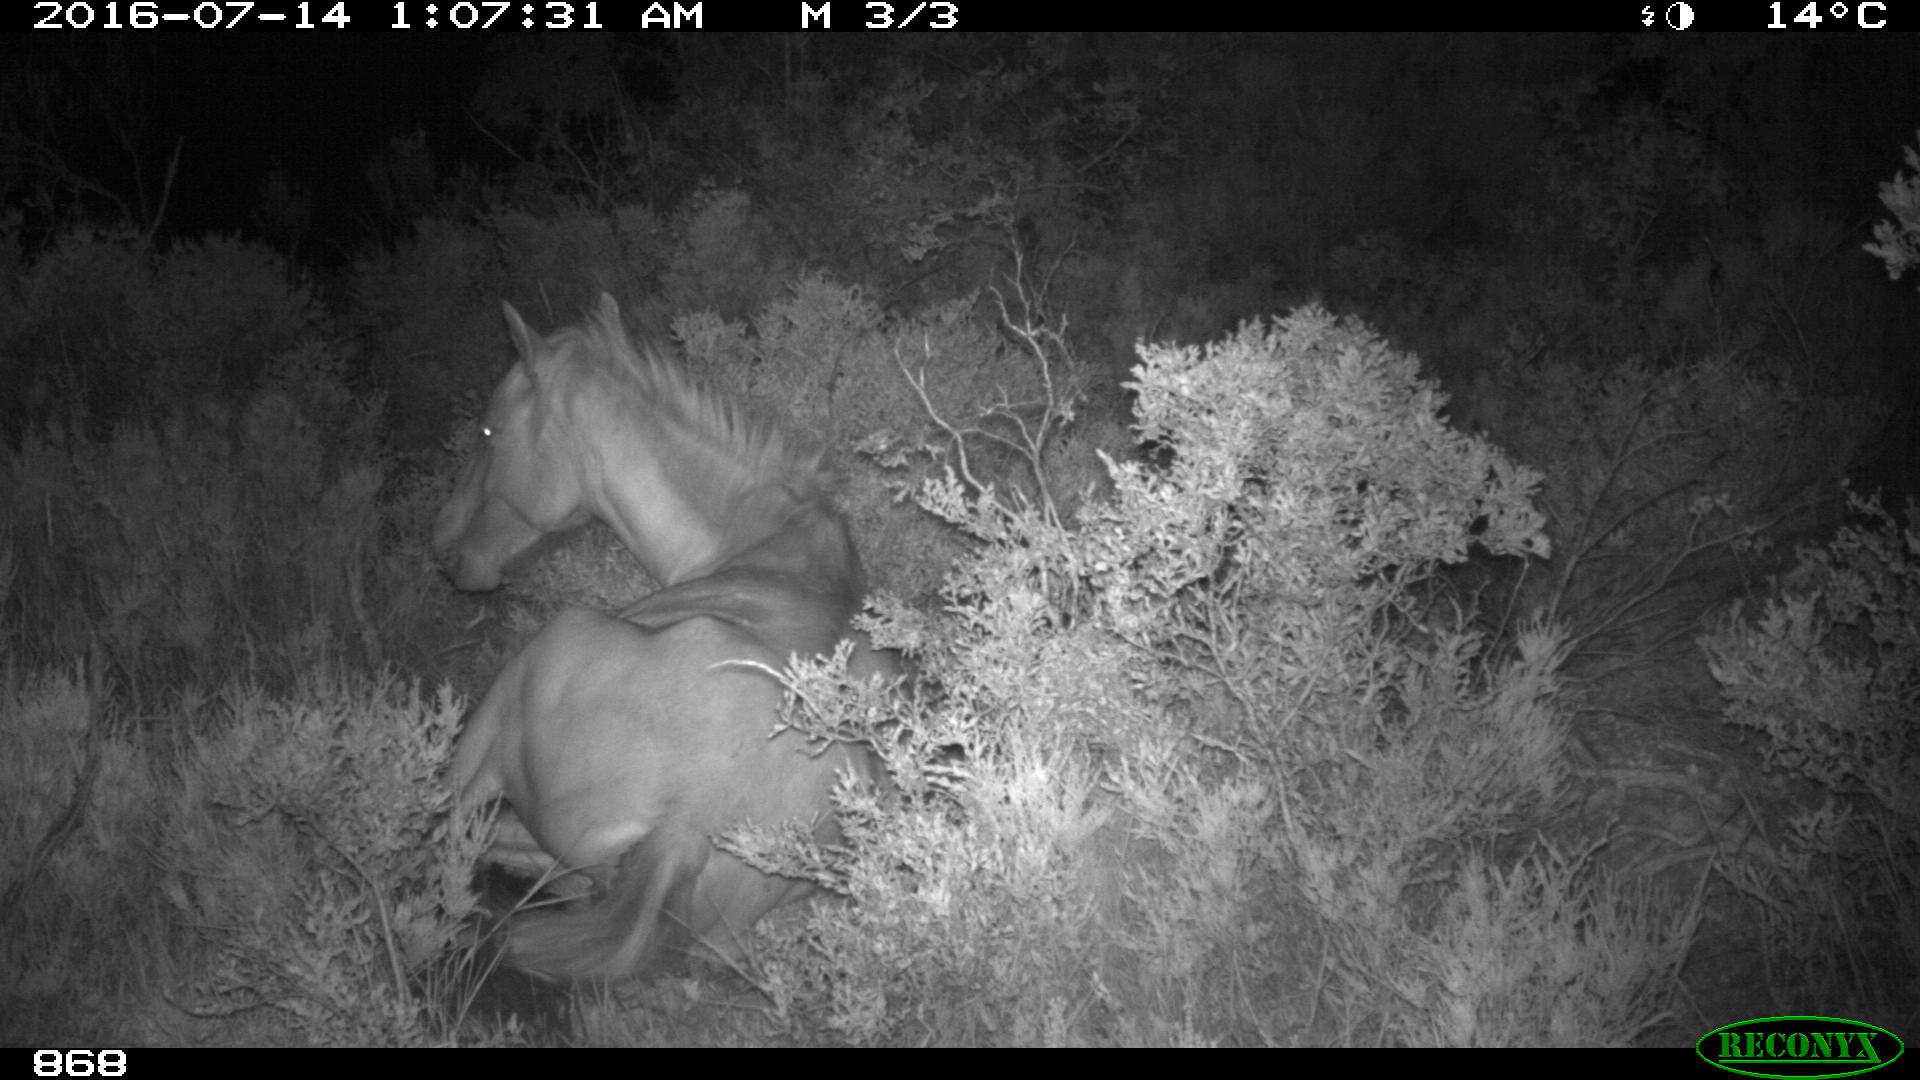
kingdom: Animalia
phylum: Chordata
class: Mammalia
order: Perissodactyla
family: Equidae
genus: Equus
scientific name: Equus caballus
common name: Horse
